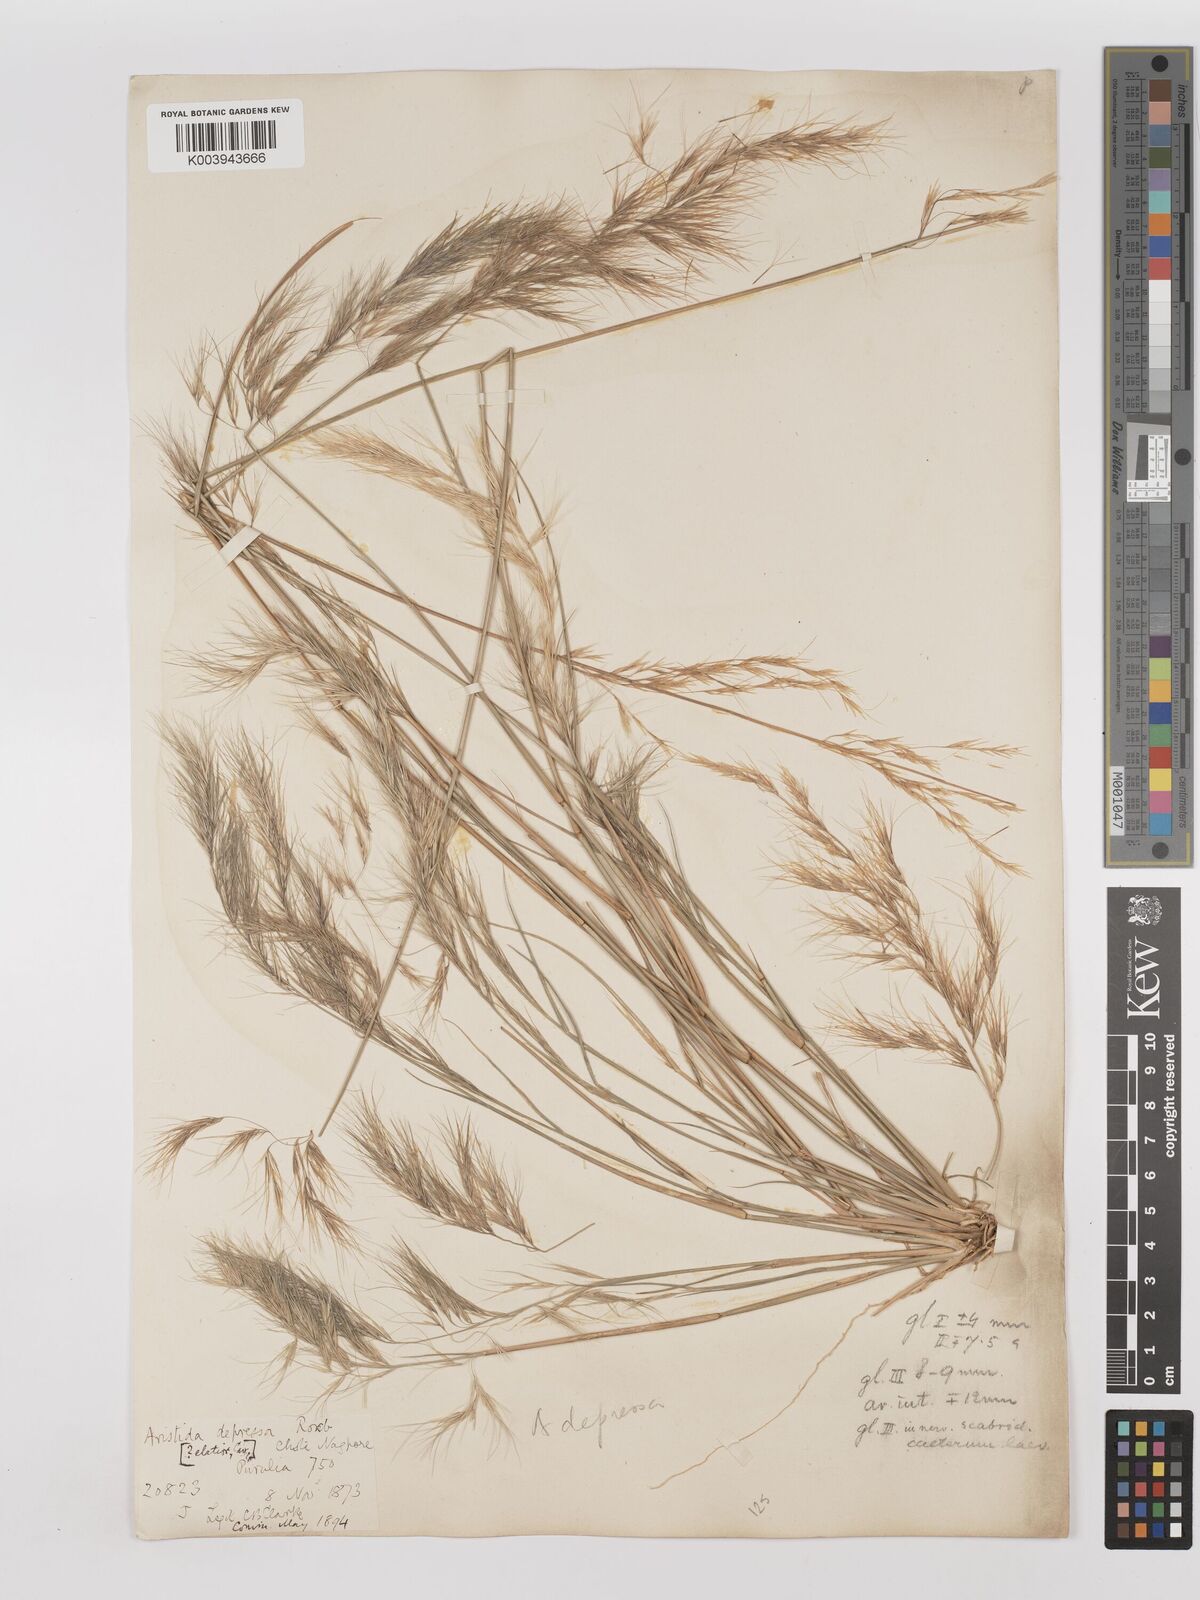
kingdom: Plantae
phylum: Tracheophyta
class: Liliopsida
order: Poales
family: Poaceae
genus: Aristida
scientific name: Aristida adscensionis
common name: Sixweeks threeawn
